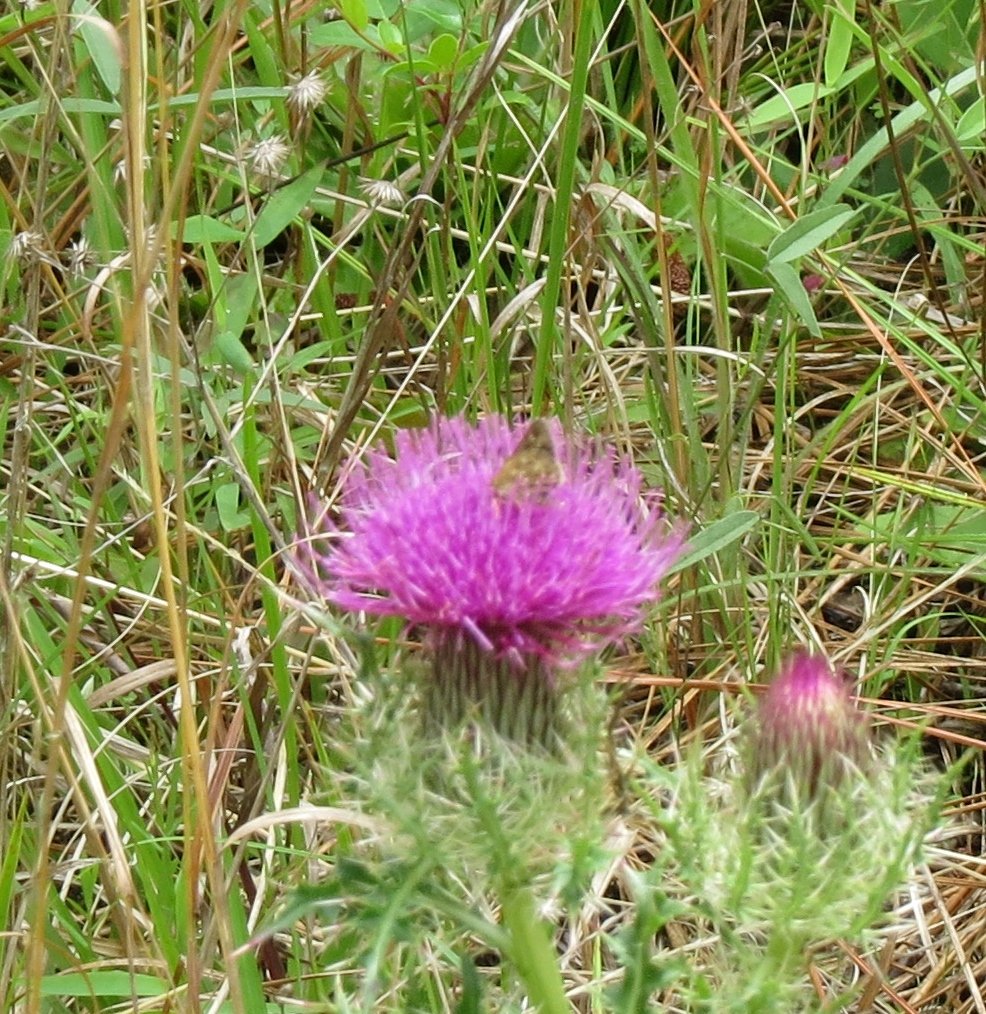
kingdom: Animalia
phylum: Arthropoda
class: Insecta
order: Lepidoptera
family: Hesperiidae
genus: Mastor
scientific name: Mastor carolina
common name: Reversed Roadside-skipper
